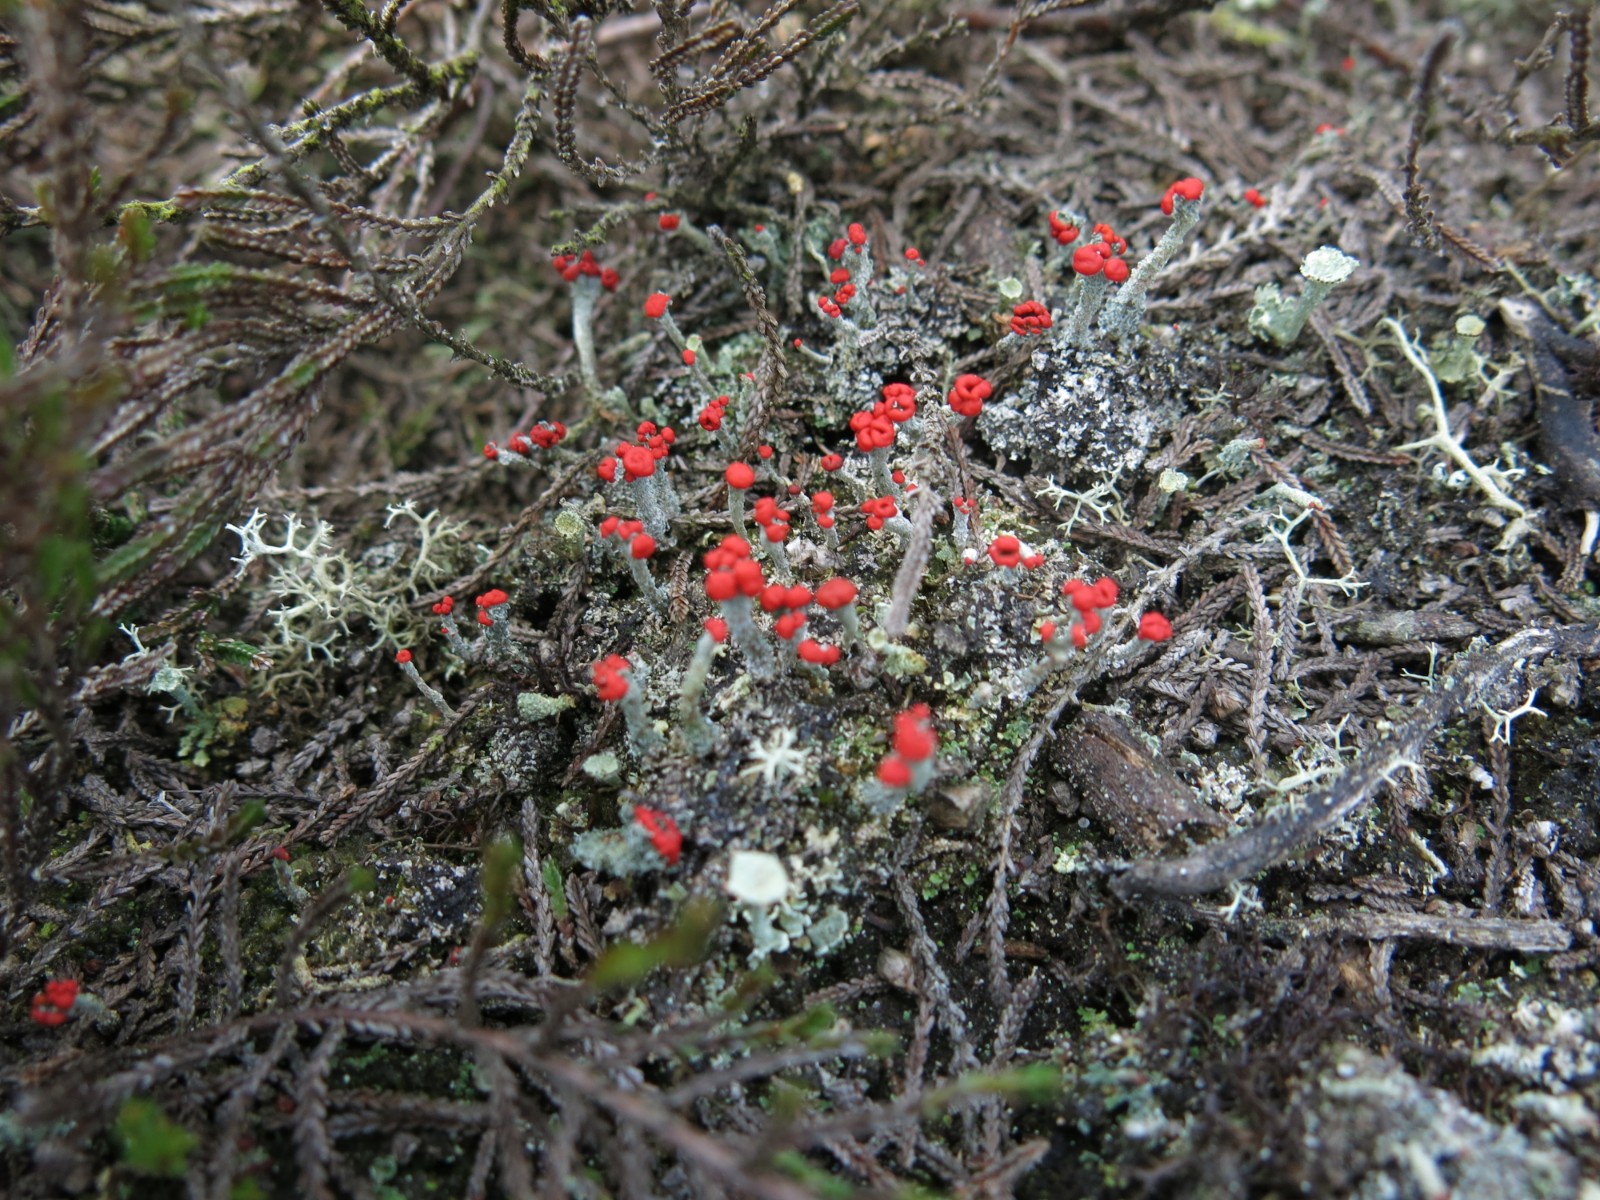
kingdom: Fungi
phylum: Ascomycota
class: Lecanoromycetes
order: Lecanorales
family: Cladoniaceae
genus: Cladonia
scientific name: Cladonia floerkeana
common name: lakrød bægerlav
